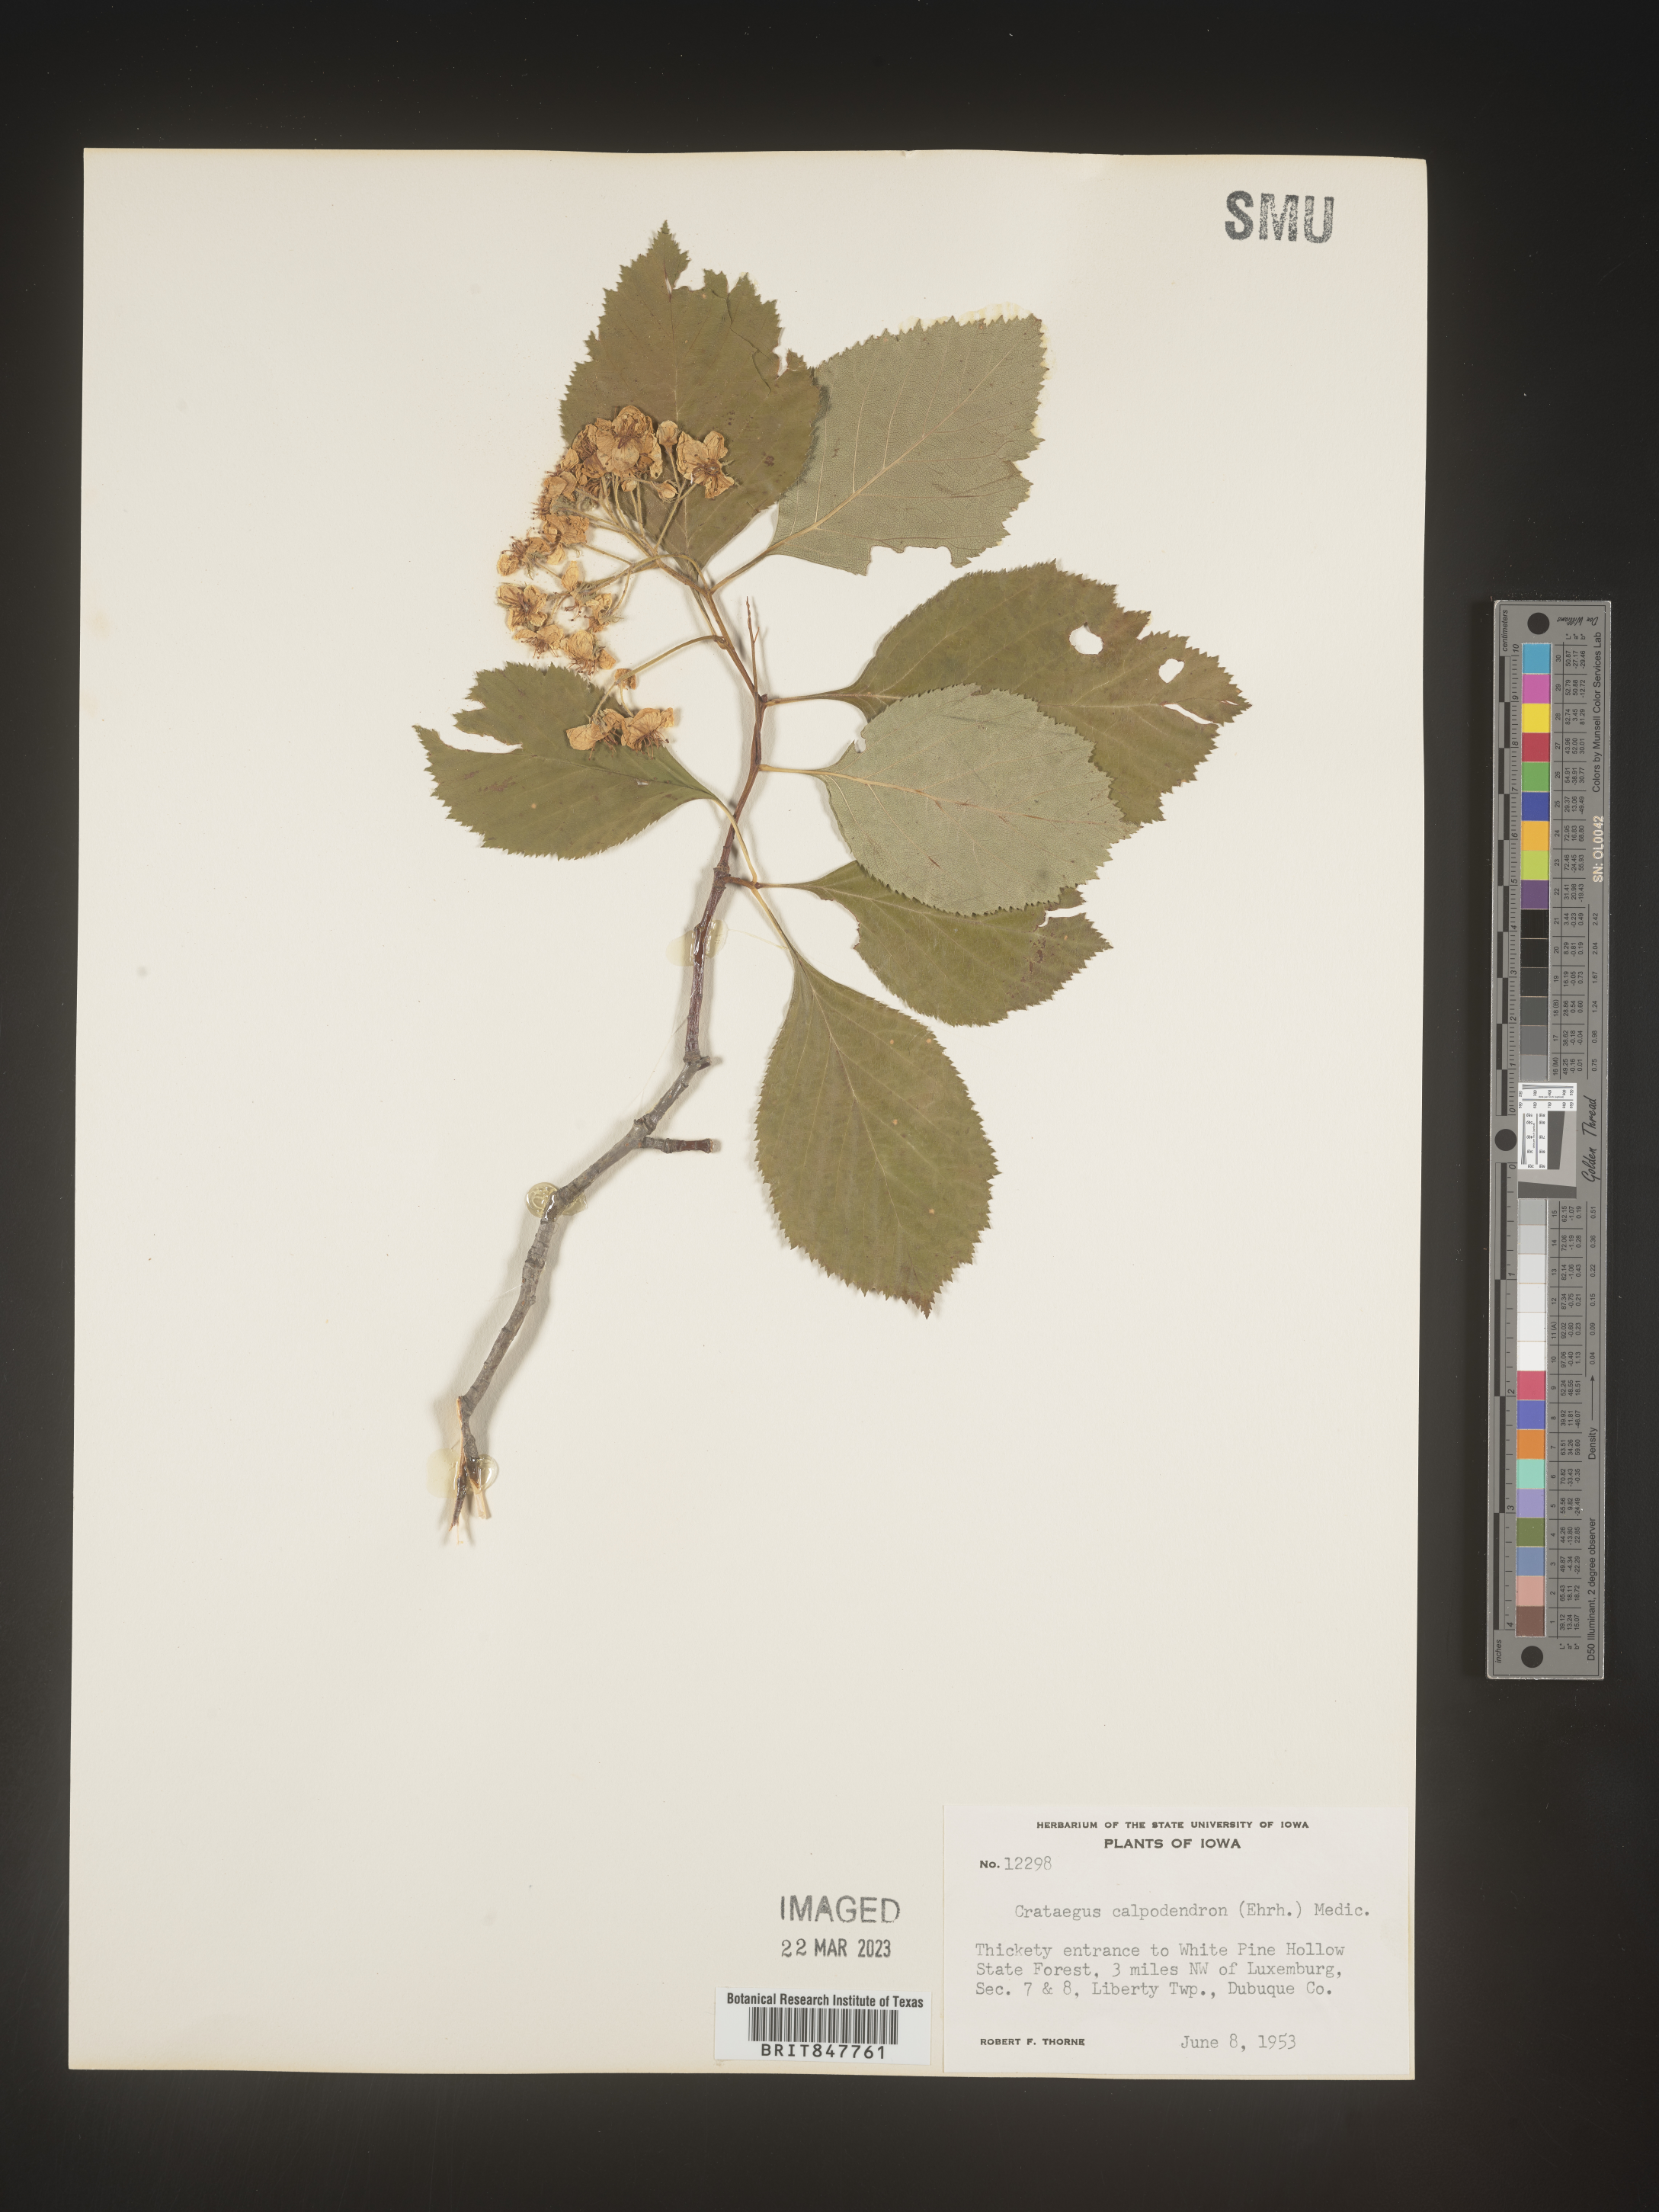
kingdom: Plantae
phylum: Tracheophyta
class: Magnoliopsida
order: Rosales
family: Rosaceae
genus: Crataegus
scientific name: Crataegus calpodendron
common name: Pear hawthorn
